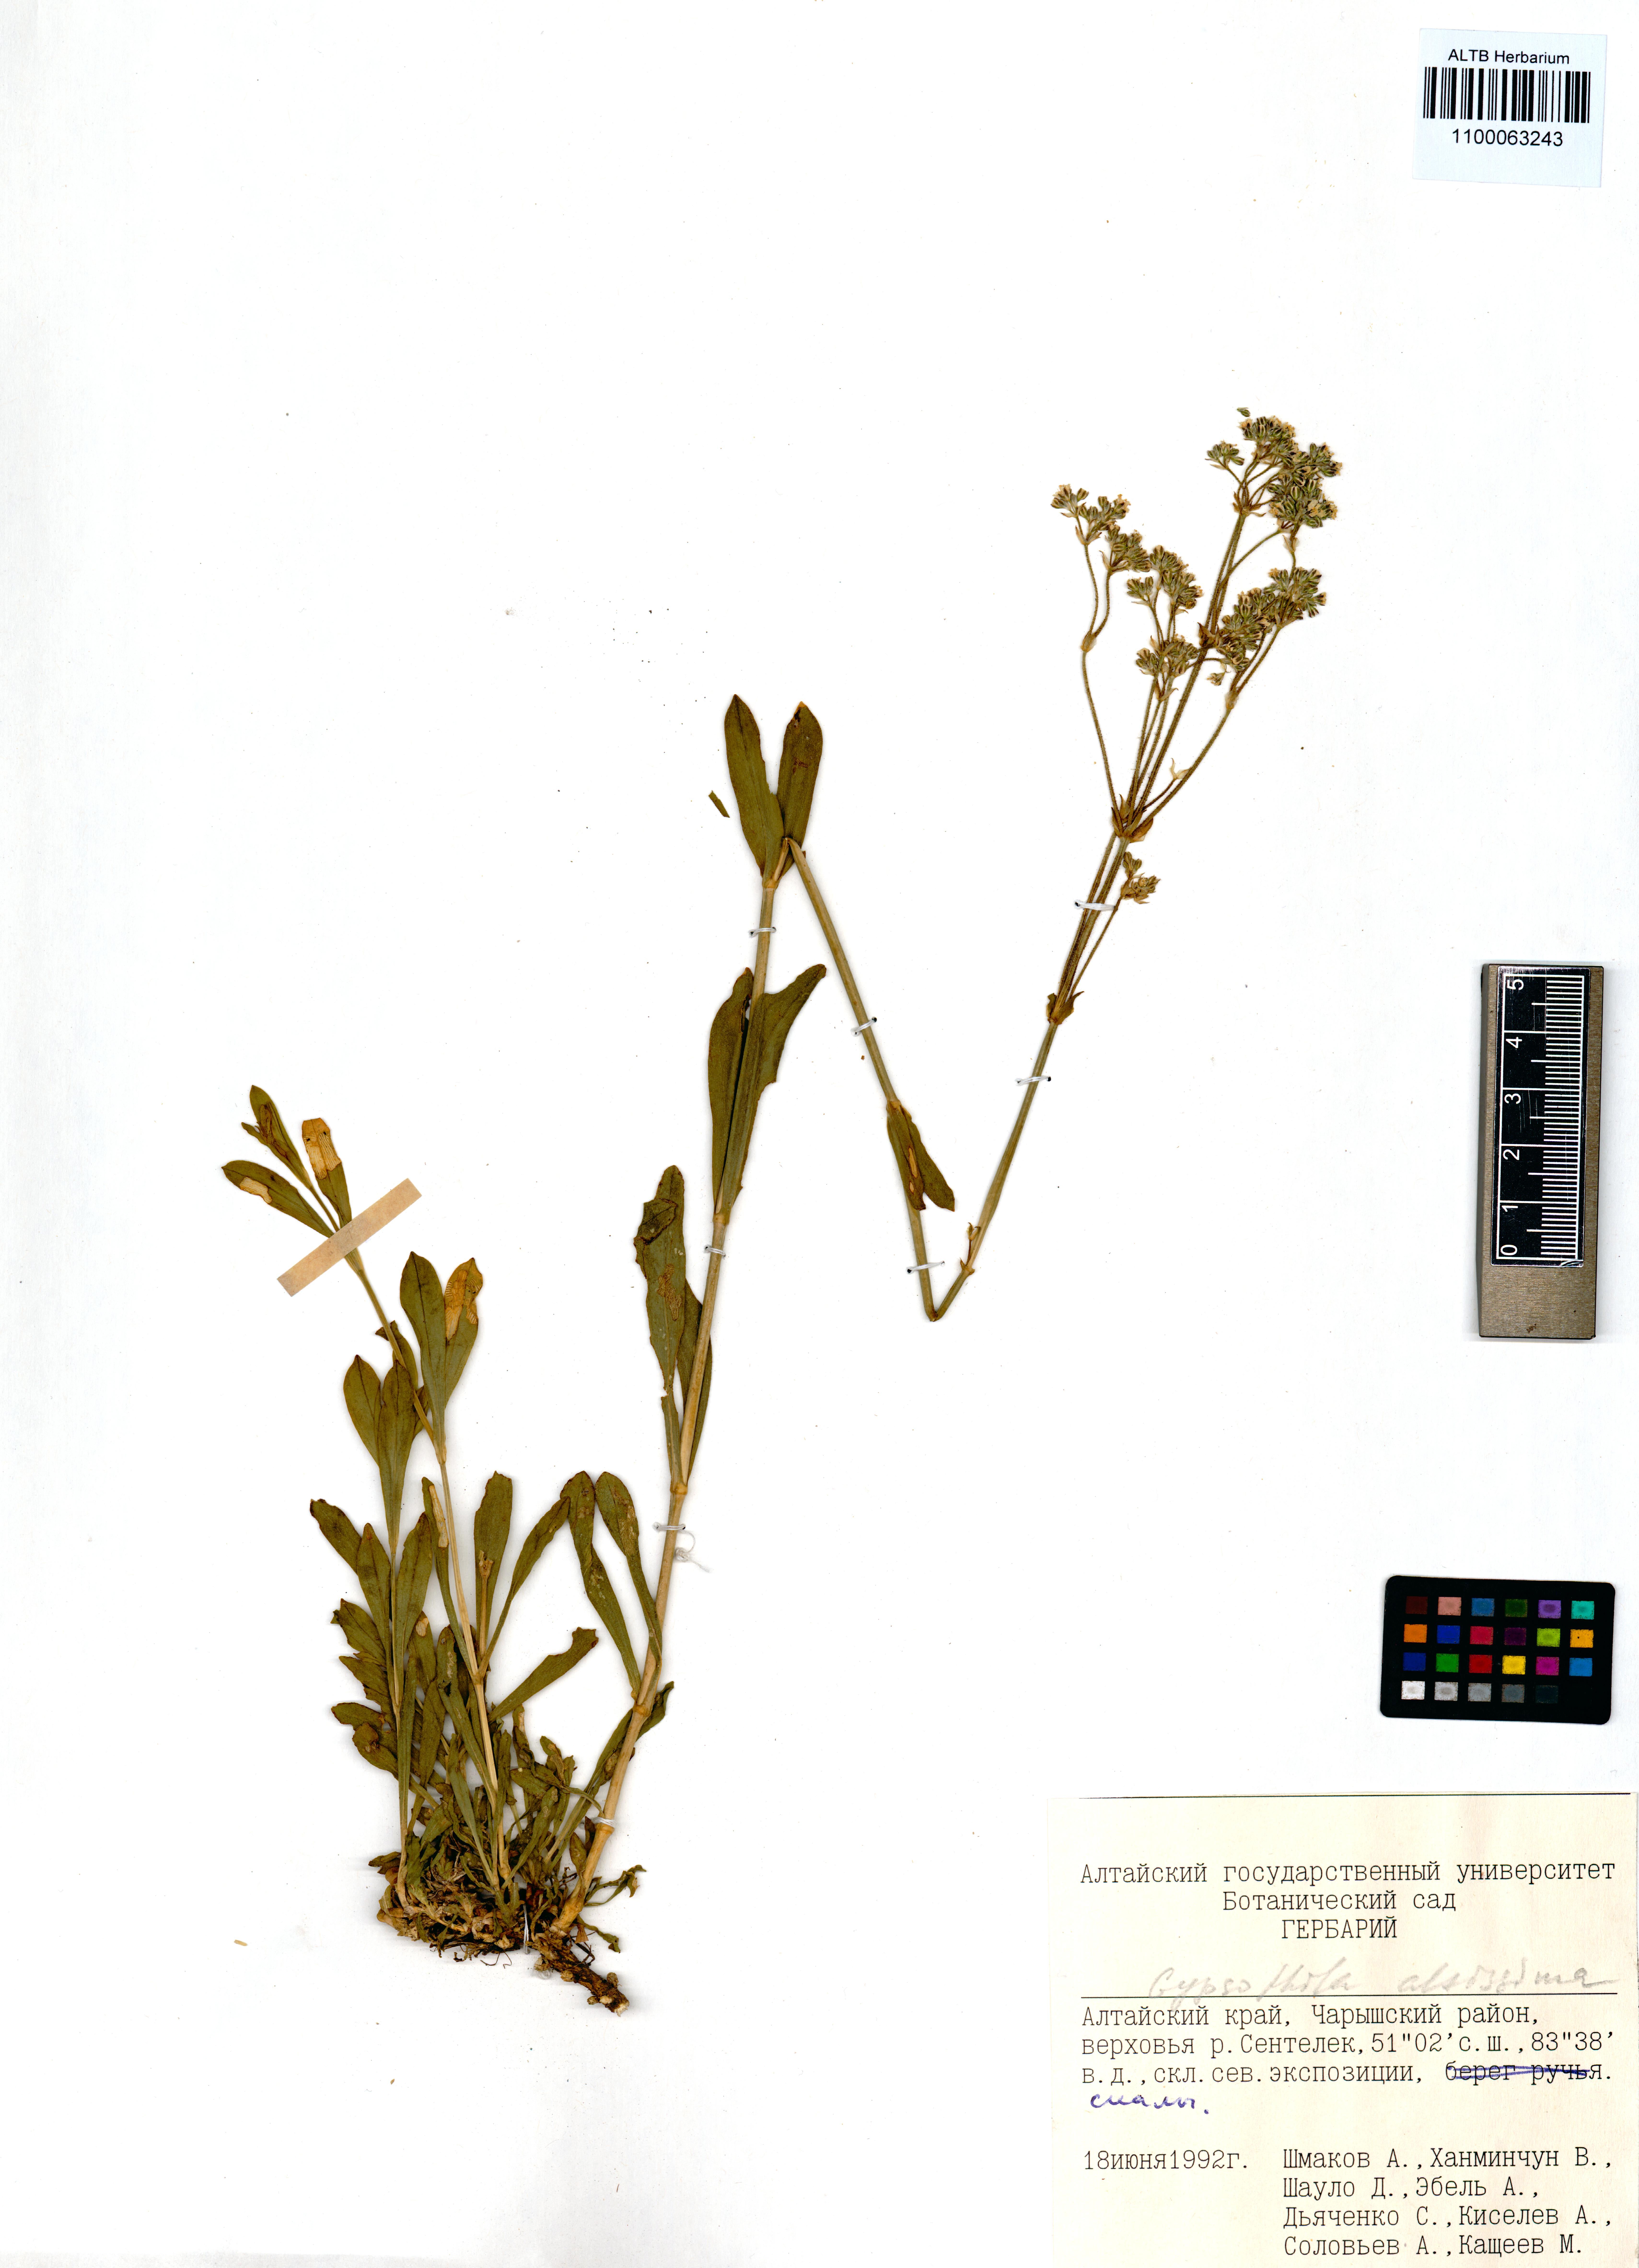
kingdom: Plantae
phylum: Tracheophyta
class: Magnoliopsida
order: Caryophyllales
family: Caryophyllaceae
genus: Gypsophila
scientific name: Gypsophila altissima
